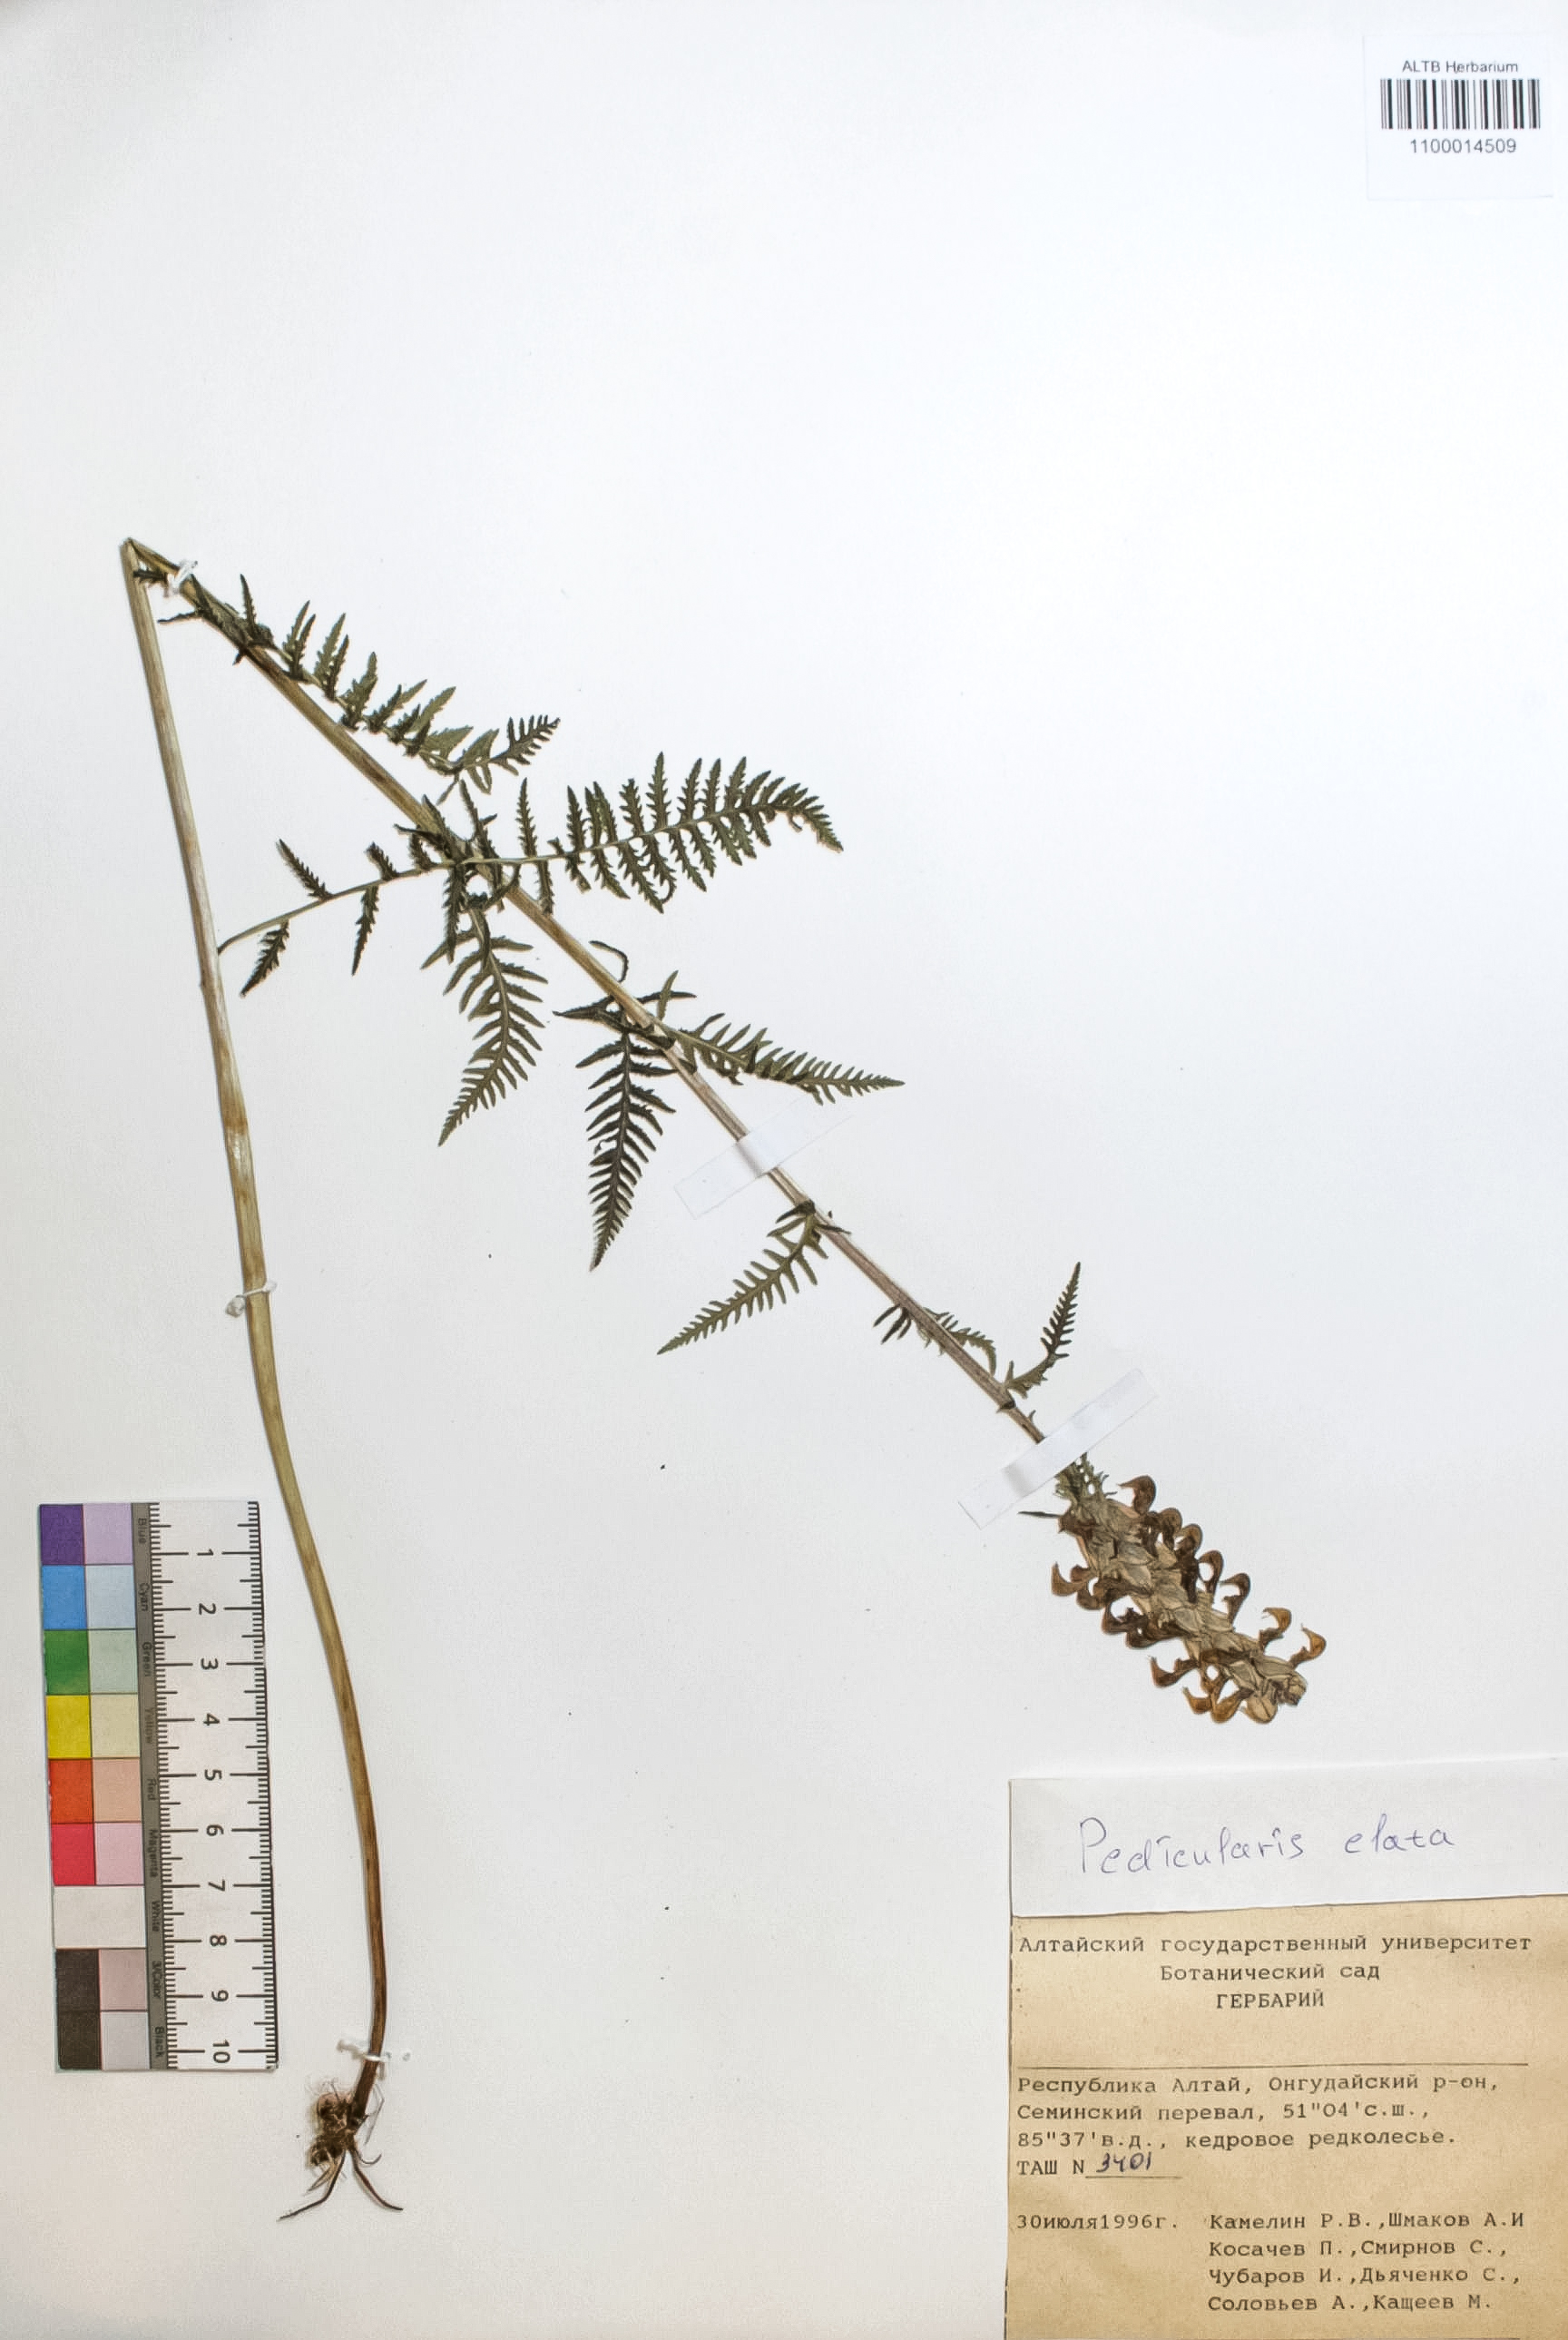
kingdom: Plantae
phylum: Tracheophyta
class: Magnoliopsida
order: Lamiales
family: Orobanchaceae
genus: Pedicularis
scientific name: Pedicularis elata
